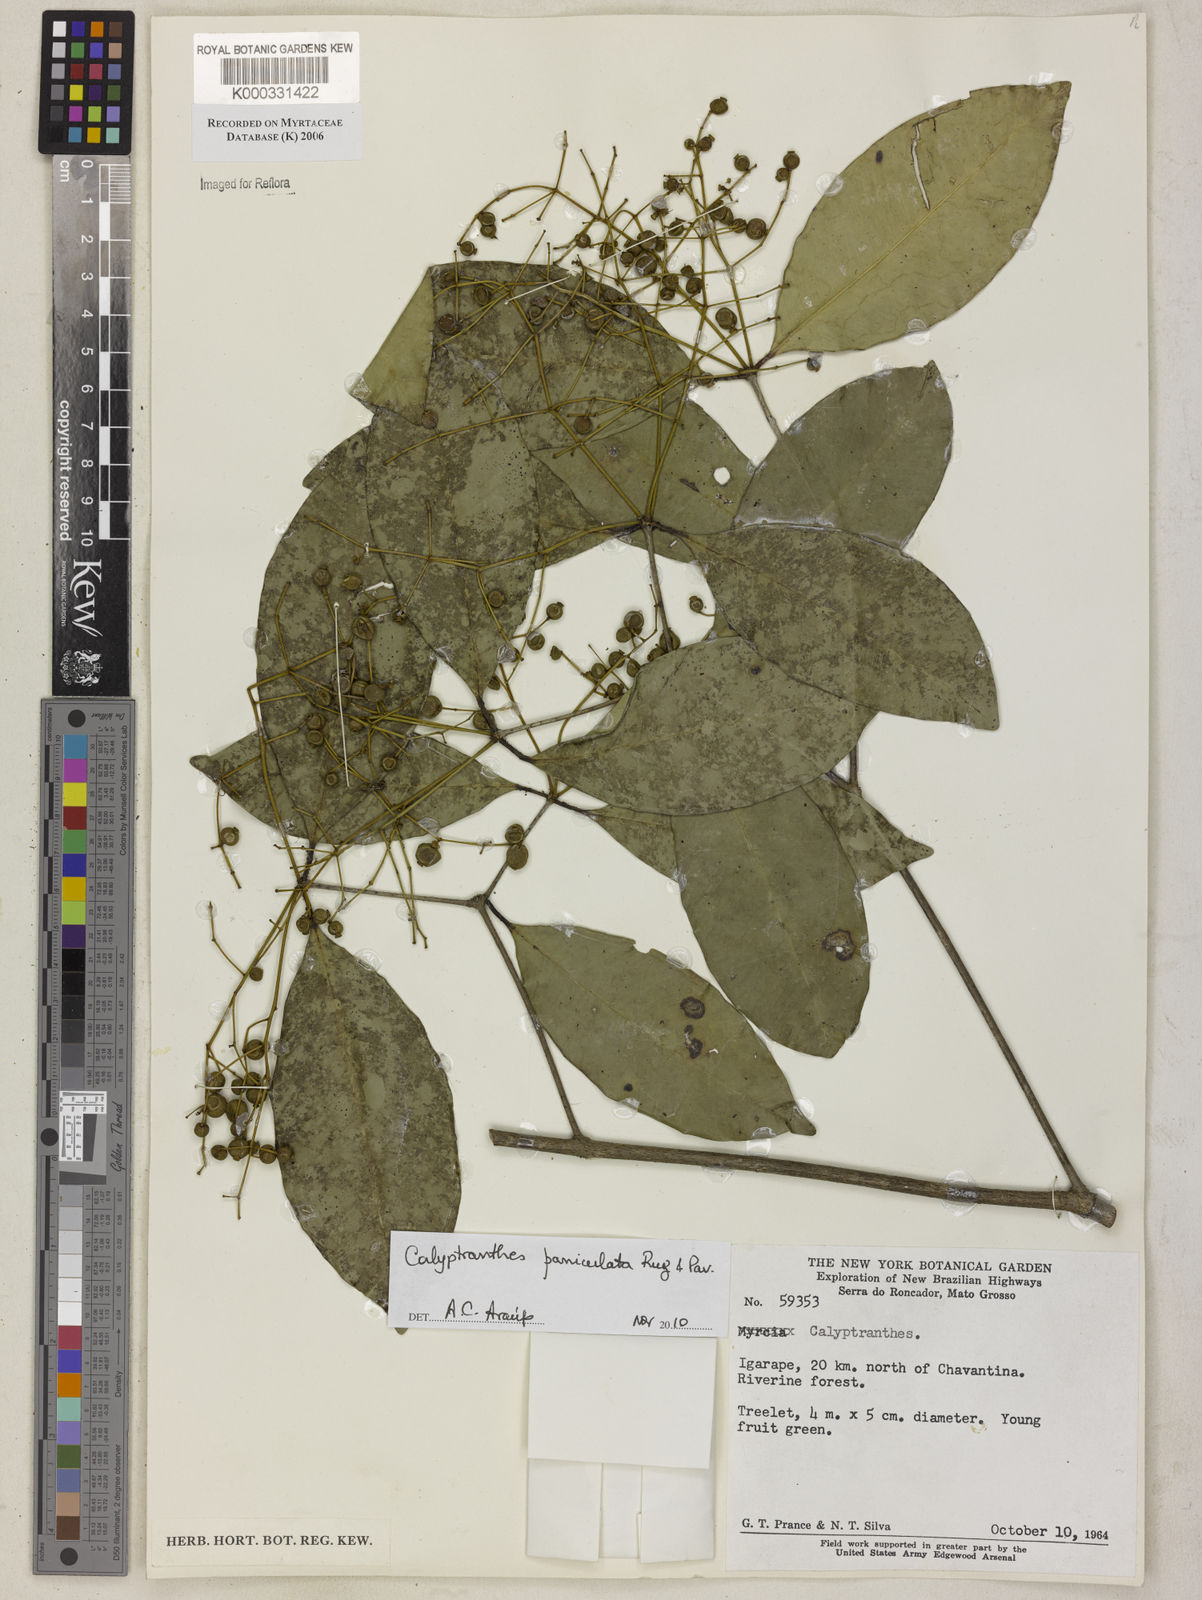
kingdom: Plantae
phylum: Tracheophyta
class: Magnoliopsida
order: Myrtales
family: Myrtaceae
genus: Calyptranthes
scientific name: Calyptranthes
